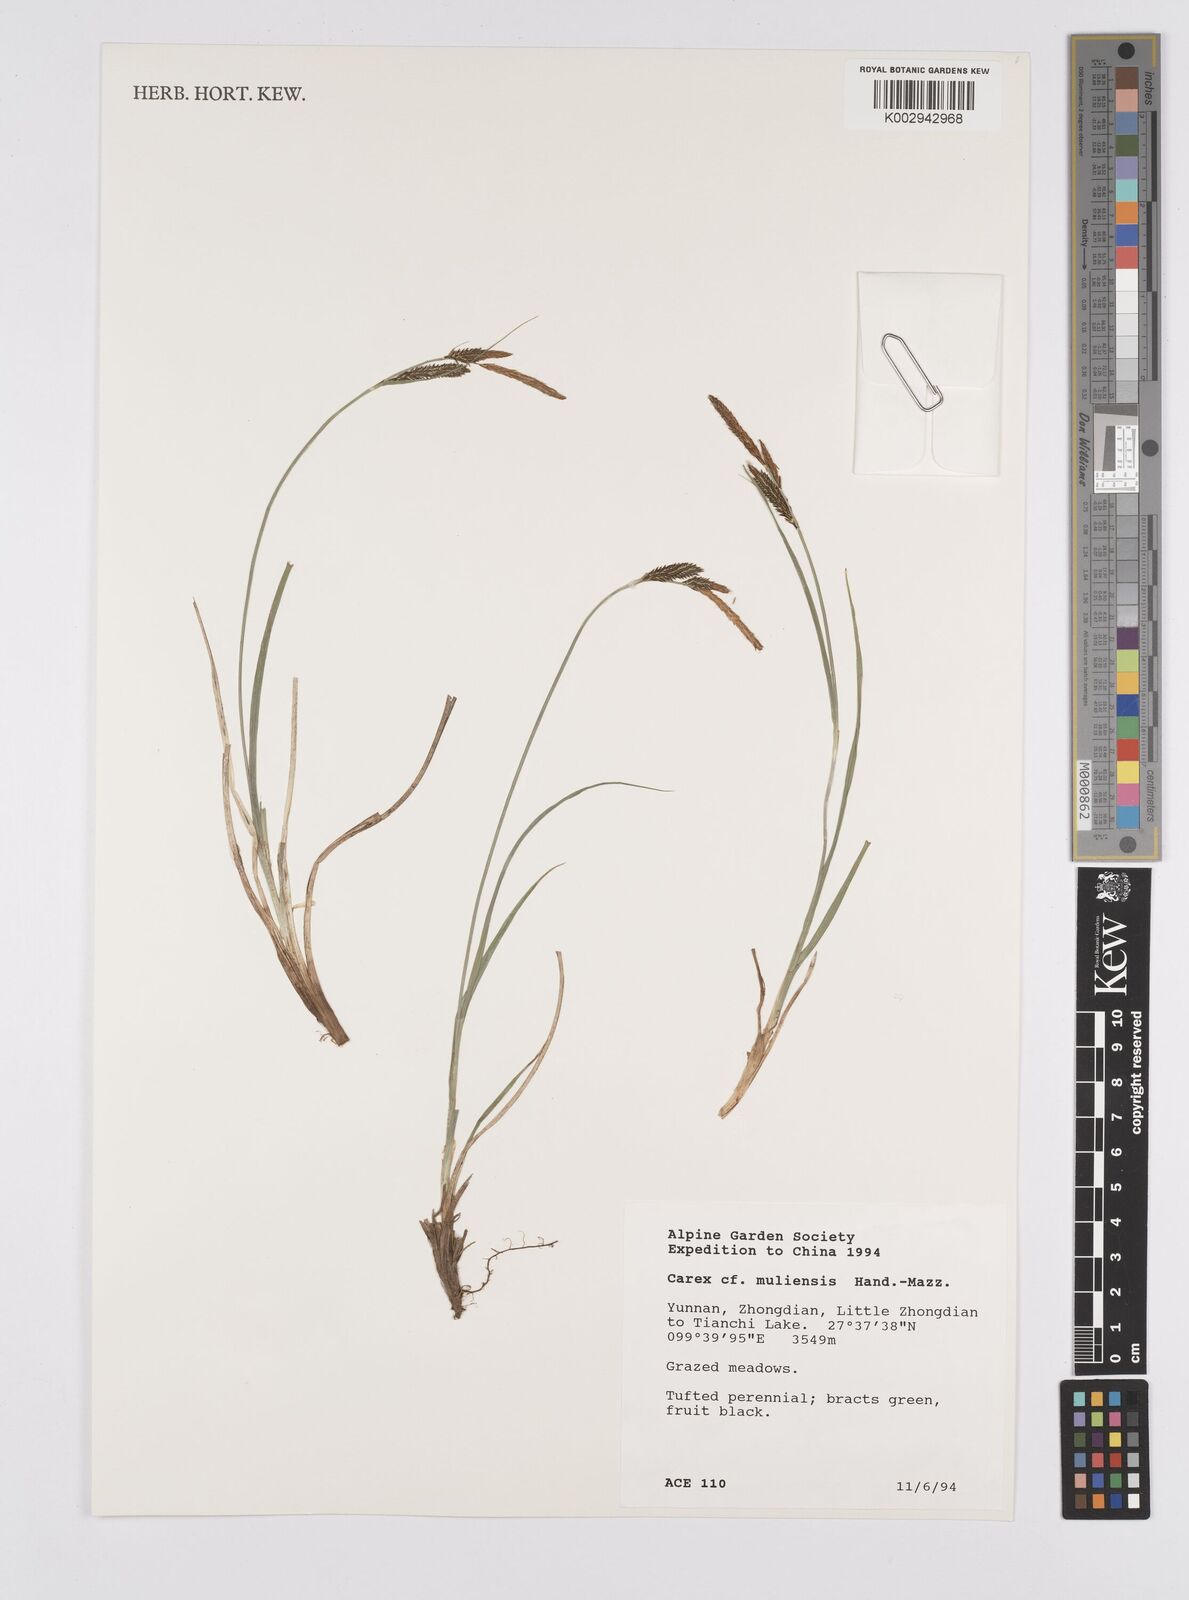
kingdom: Plantae
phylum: Tracheophyta
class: Liliopsida
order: Poales
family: Cyperaceae
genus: Carex
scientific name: Carex muliensis
